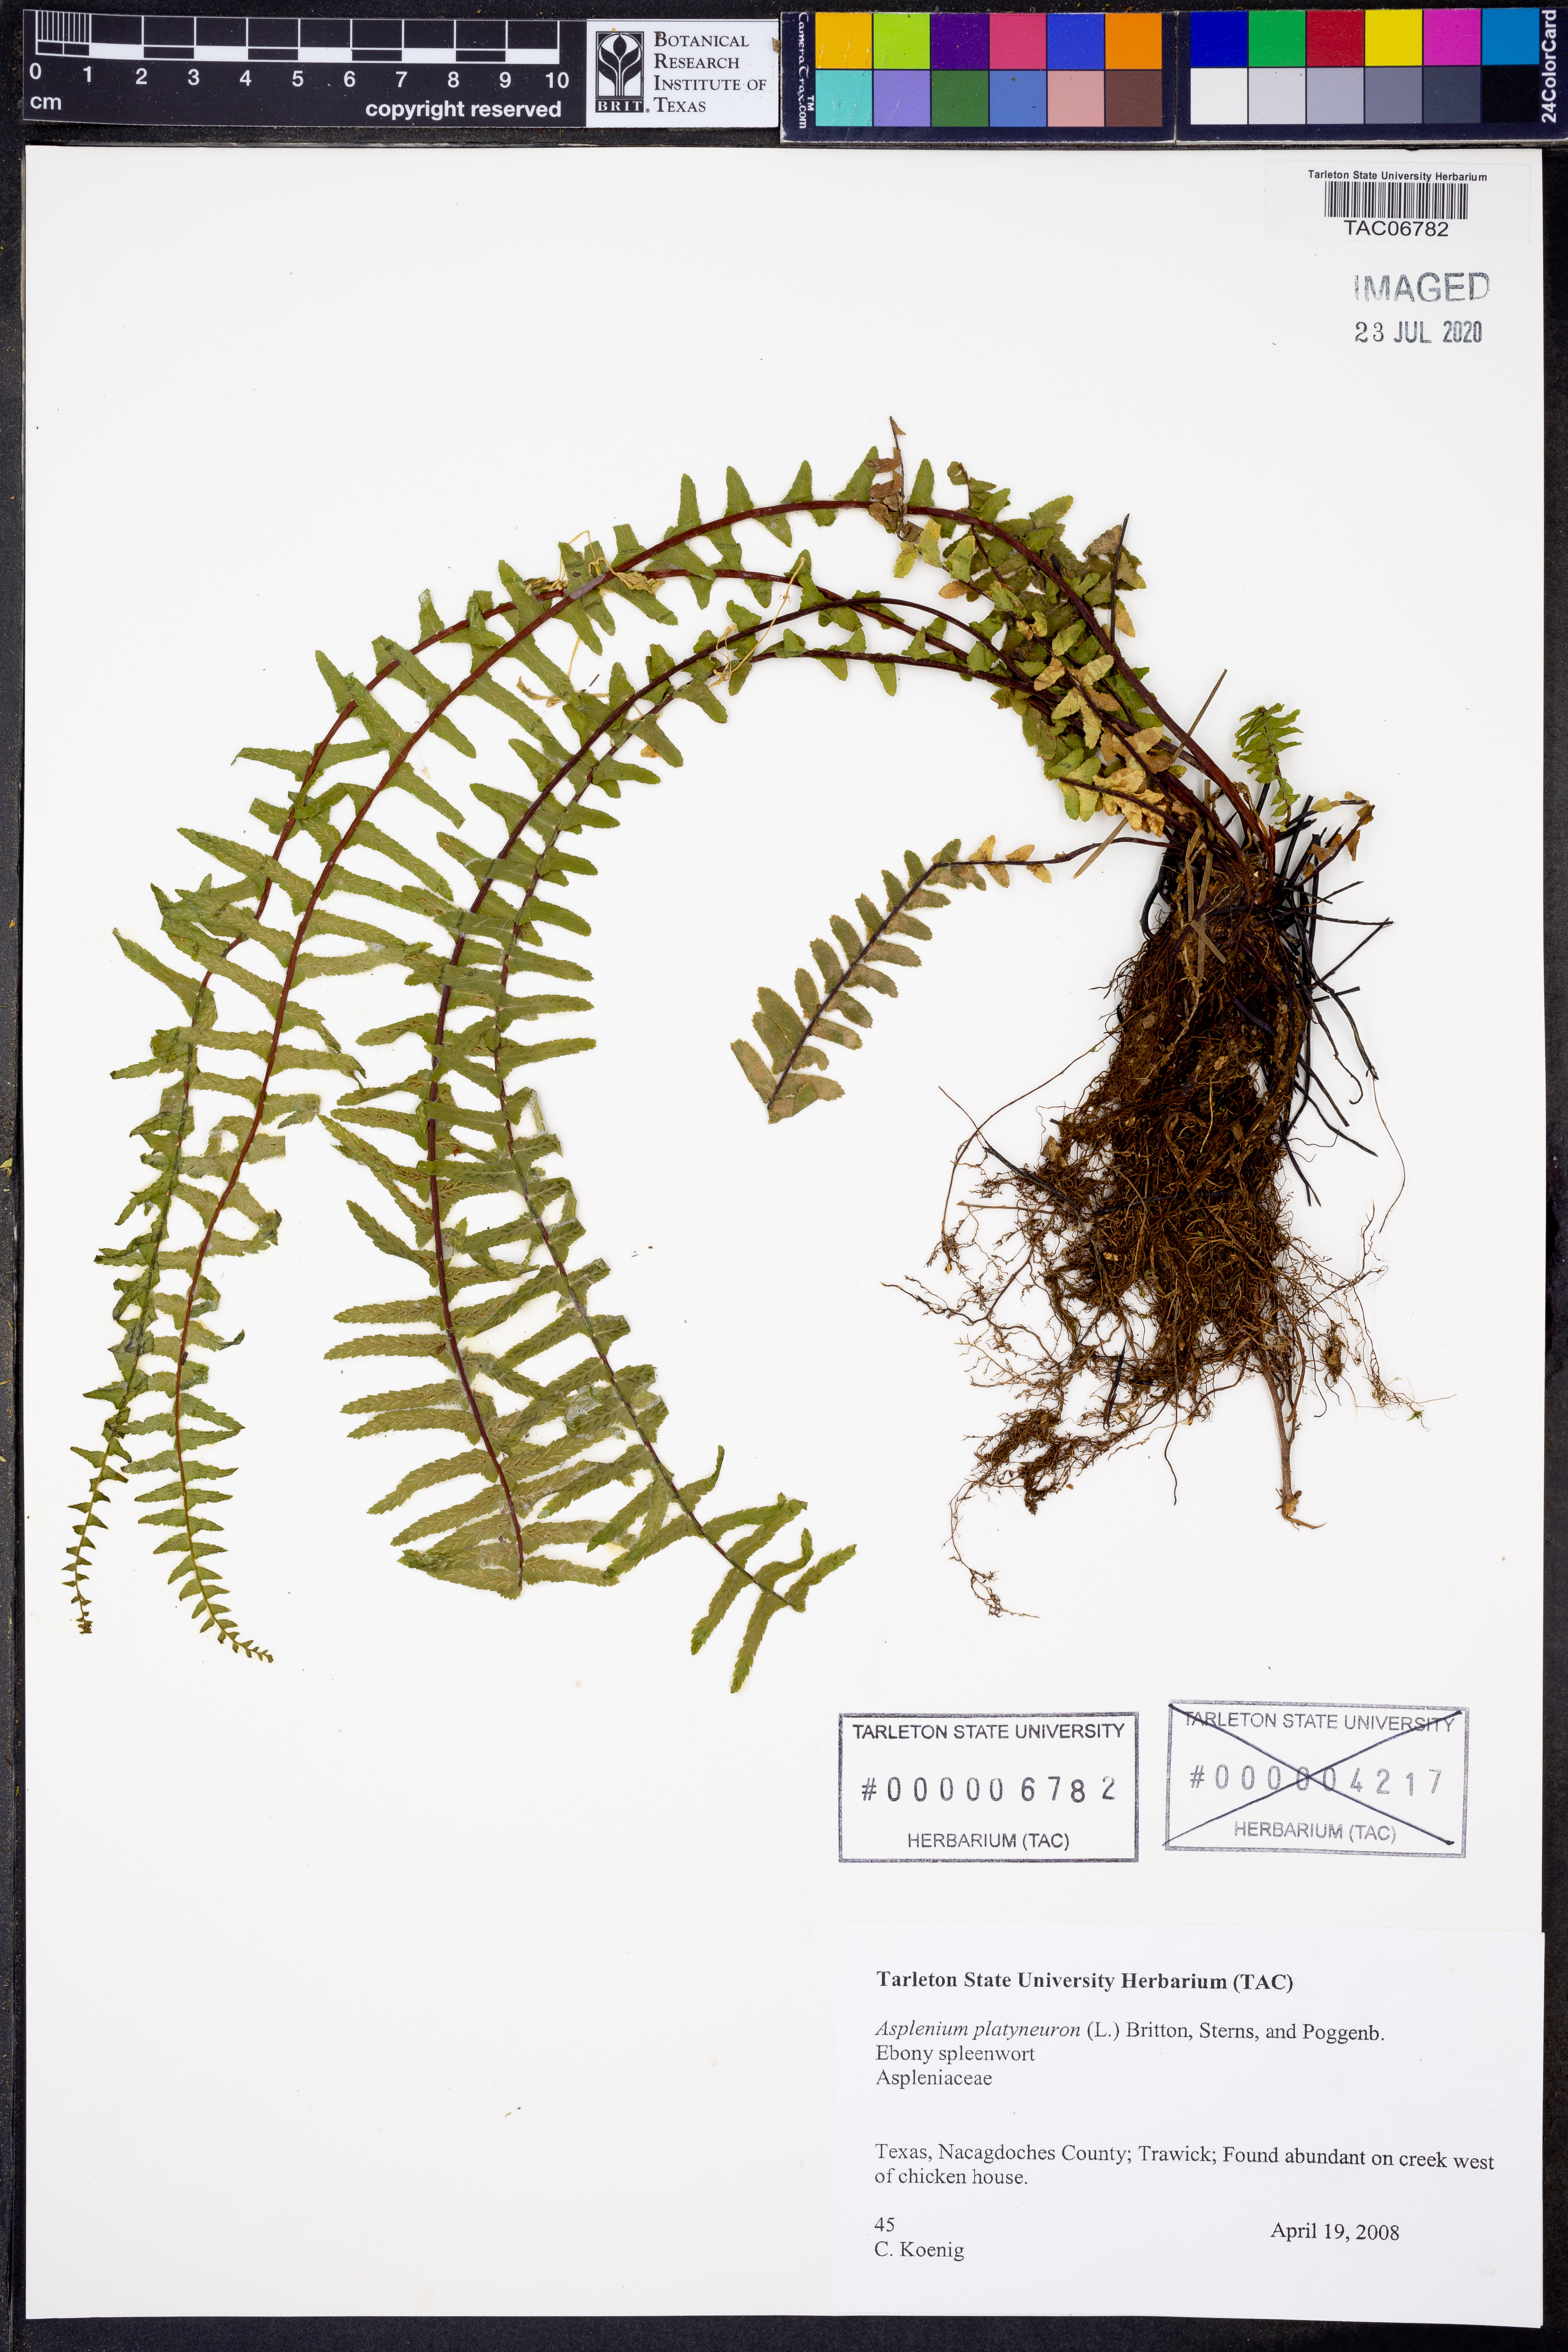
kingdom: Plantae
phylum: Tracheophyta
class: Polypodiopsida
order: Polypodiales
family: Aspleniaceae
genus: Asplenium
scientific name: Asplenium platyneuron
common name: Ebony spleenwort
